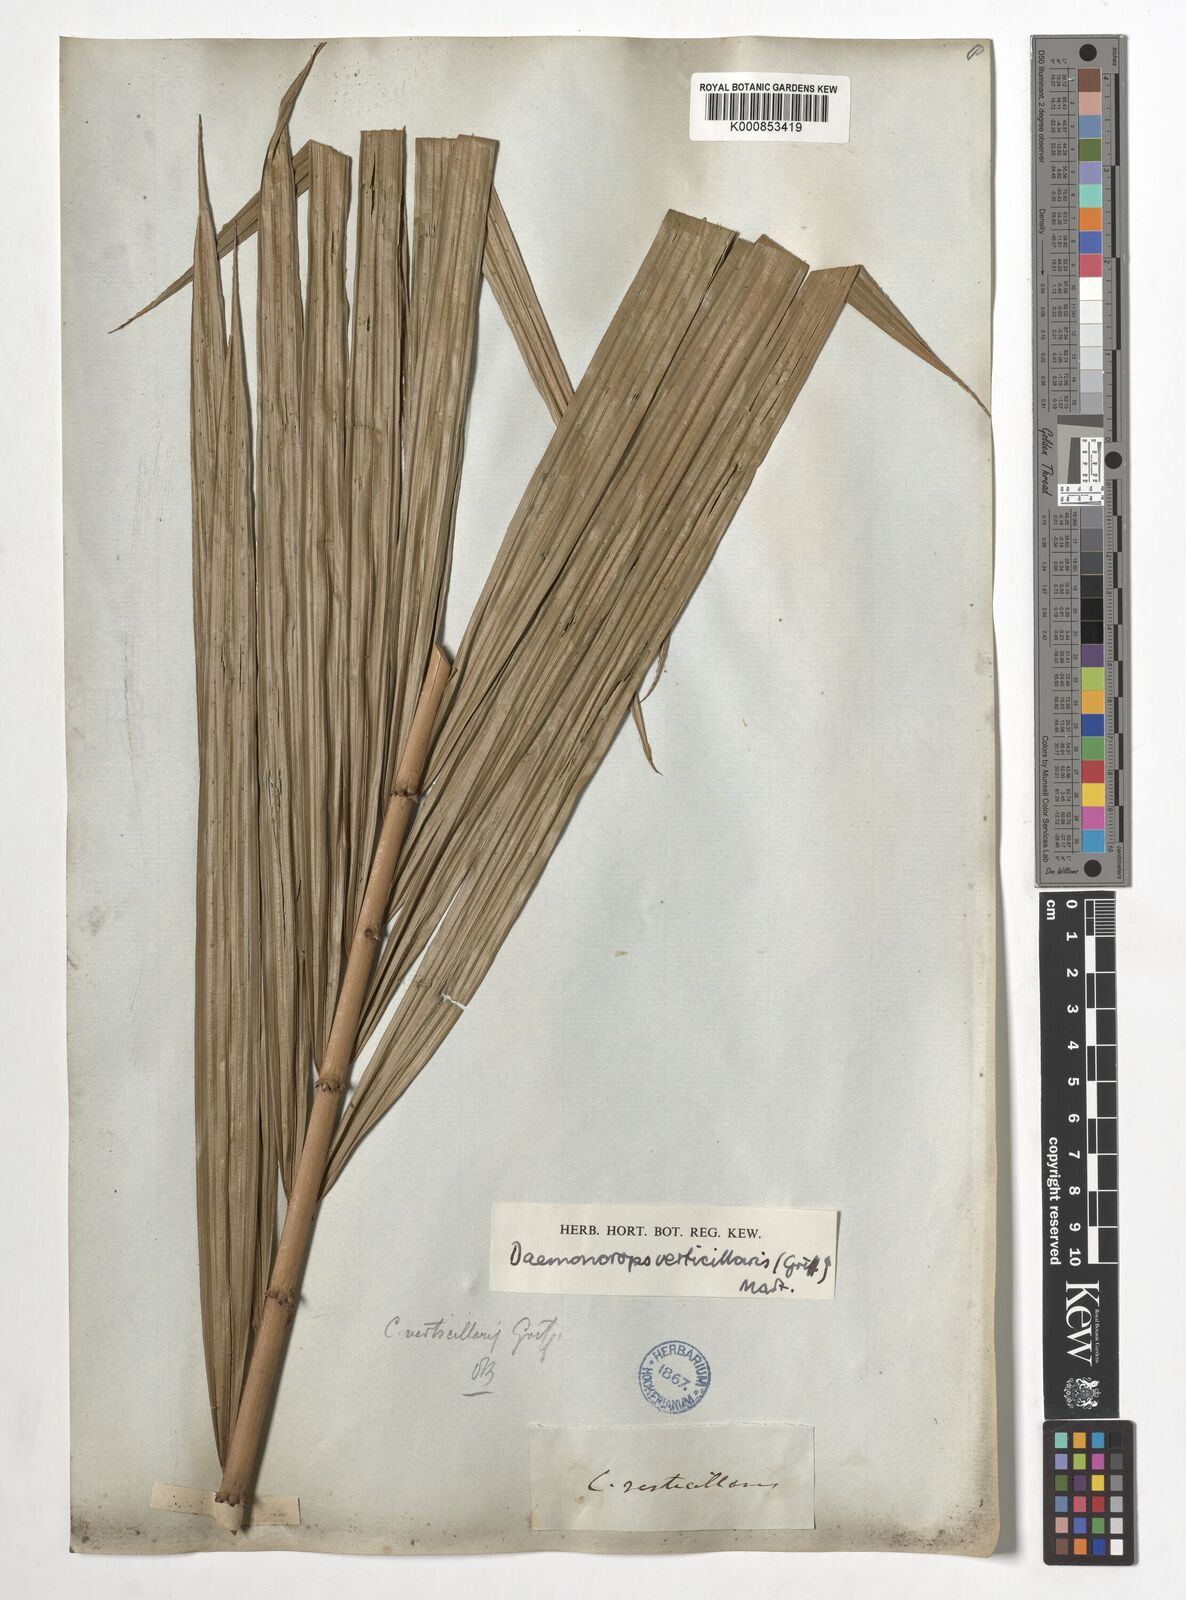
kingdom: Plantae
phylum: Tracheophyta
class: Liliopsida
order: Arecales
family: Arecaceae
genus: Calamus
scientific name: Calamus verticillaris
